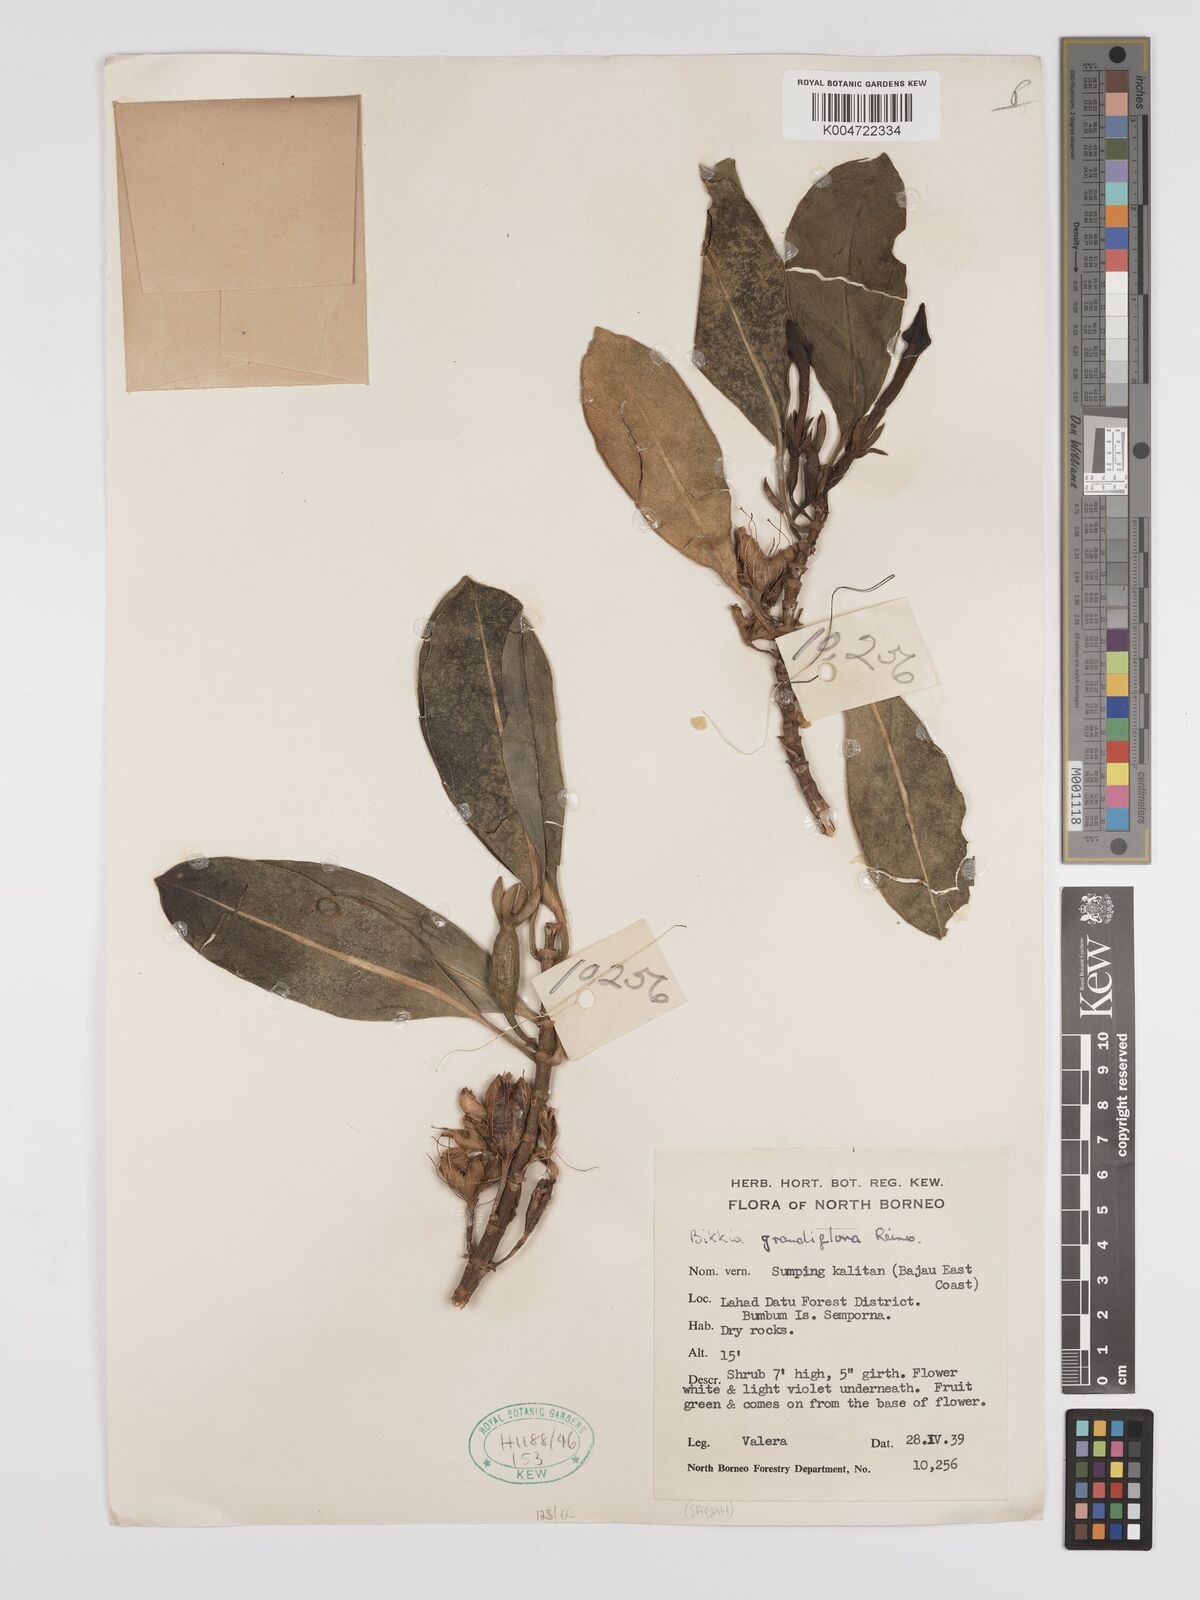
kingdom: Plantae
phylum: Tracheophyta
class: Magnoliopsida
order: Gentianales
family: Rubiaceae
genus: Bikkia
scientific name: Bikkia tetrandra
